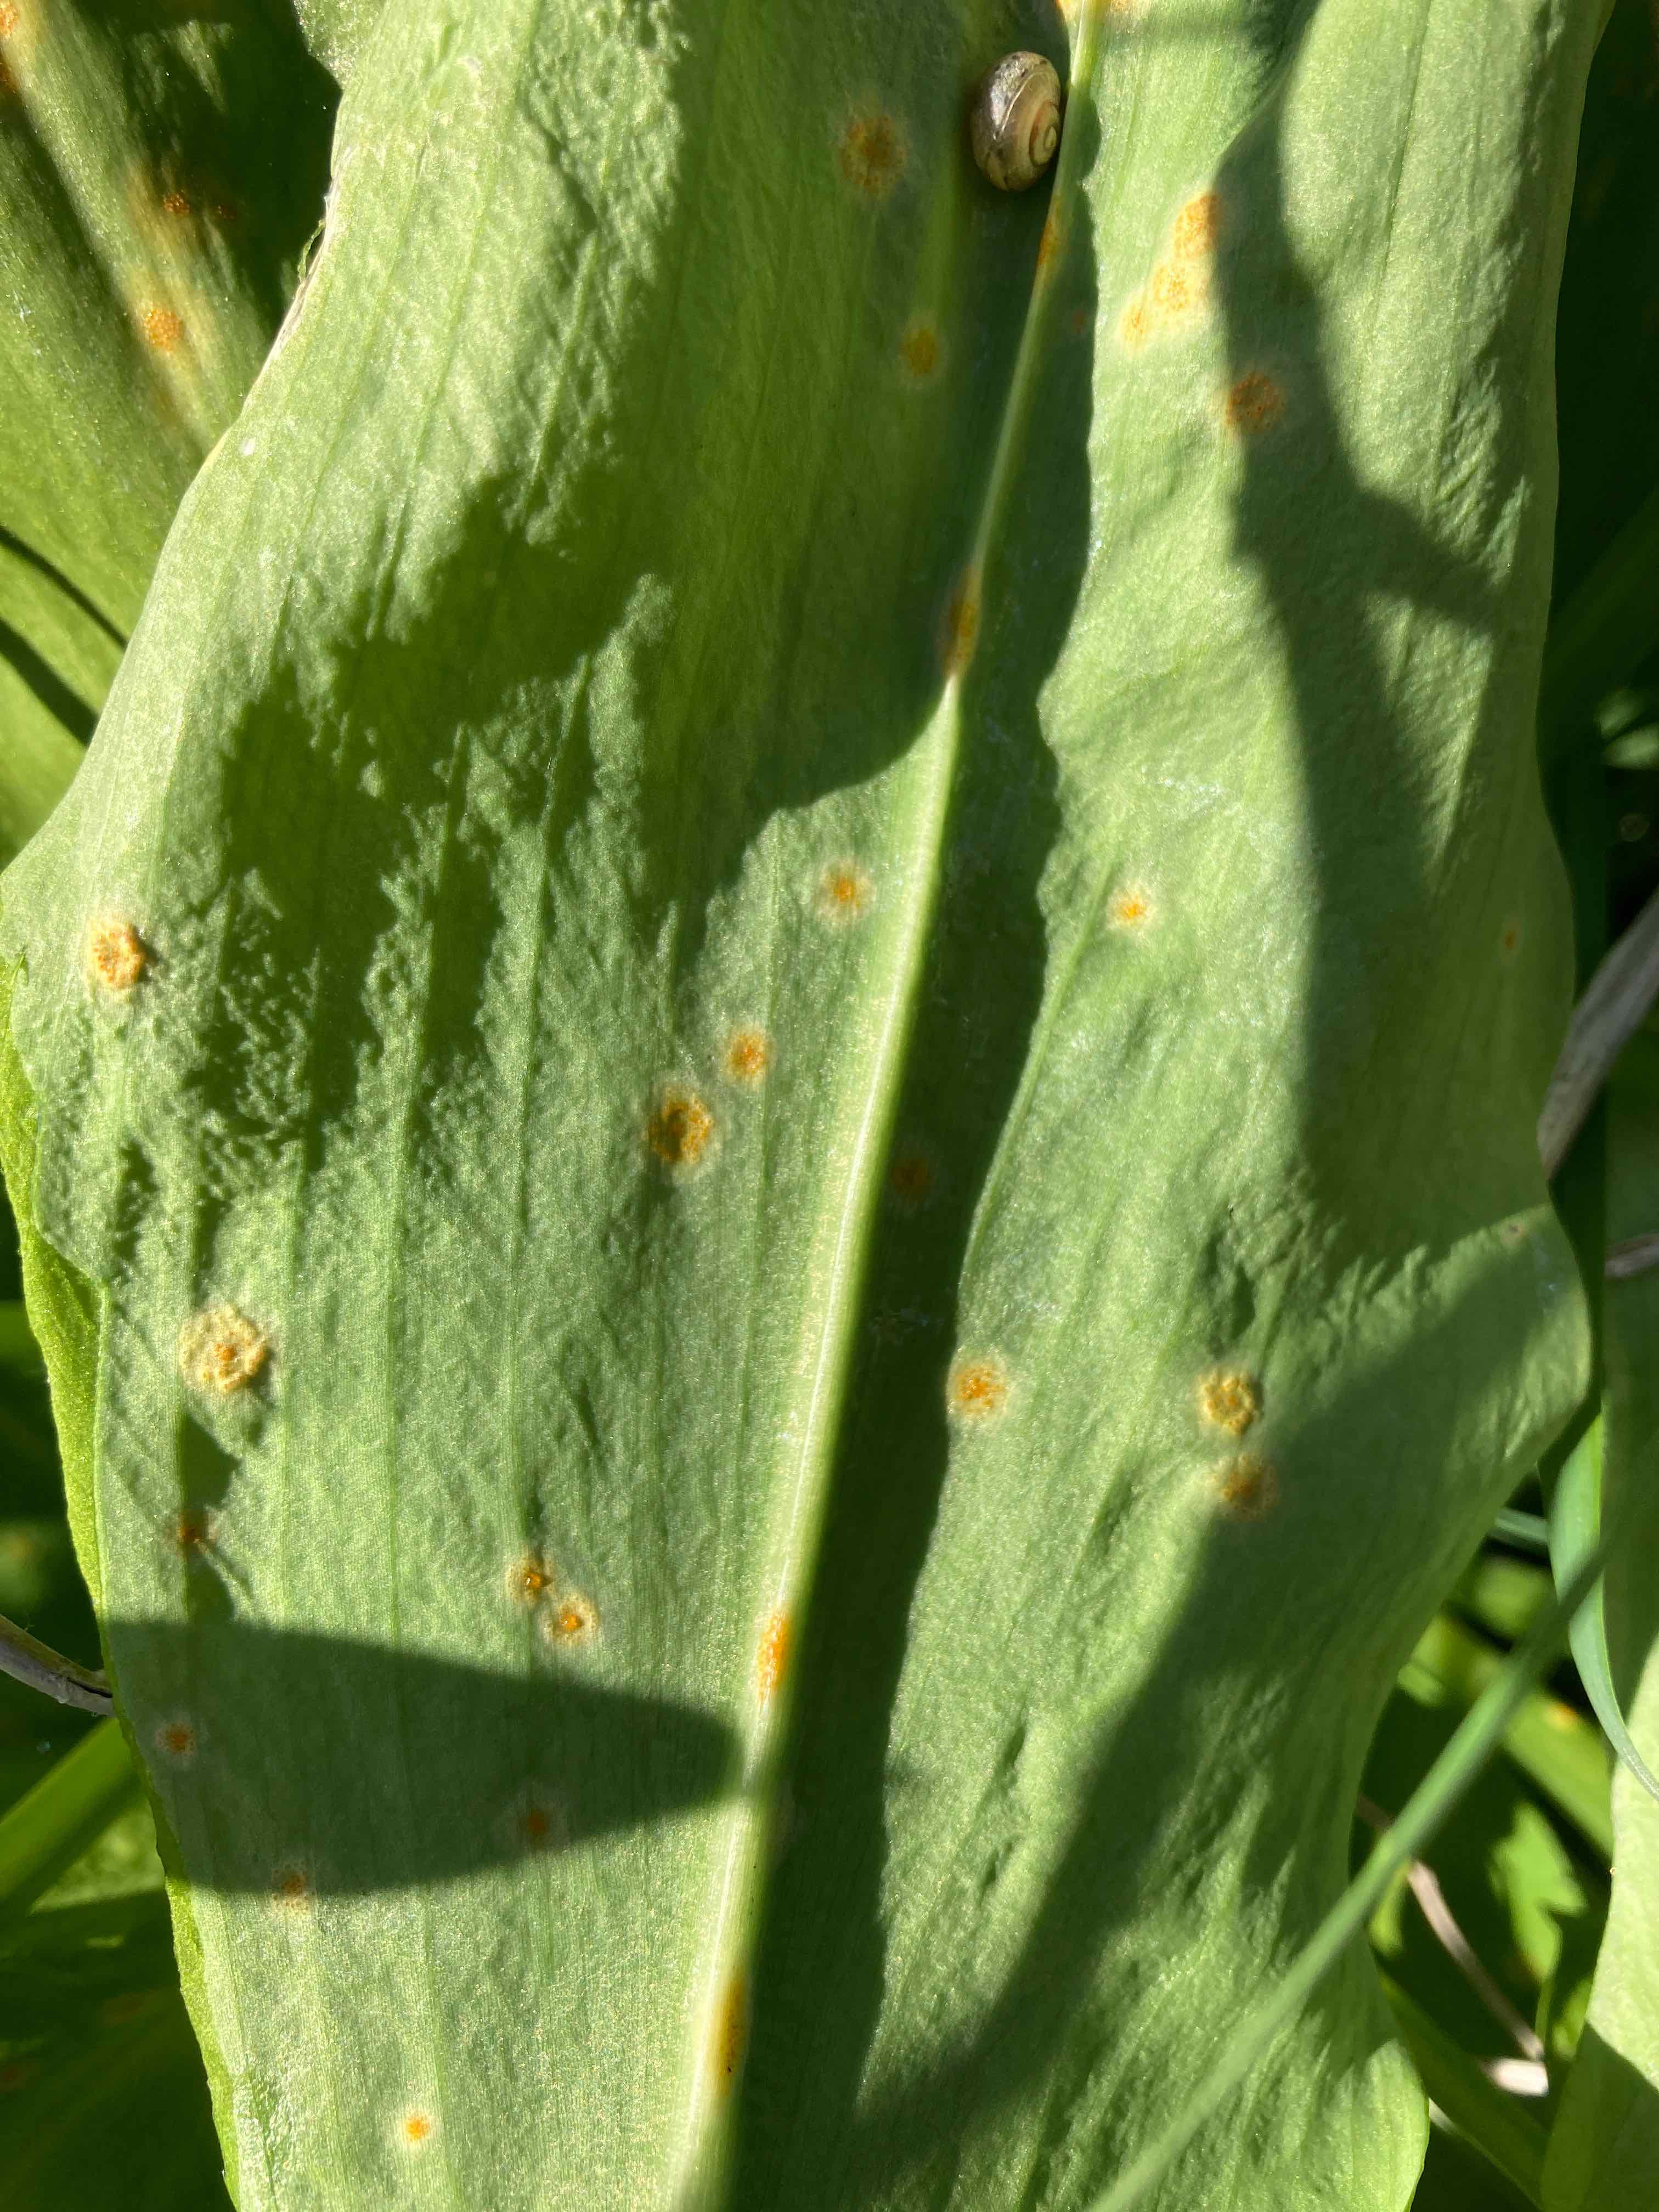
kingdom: Fungi
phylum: Basidiomycota
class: Pucciniomycetes
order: Pucciniales
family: Pucciniaceae
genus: Puccinia
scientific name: Puccinia sessilis
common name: Arum rust
